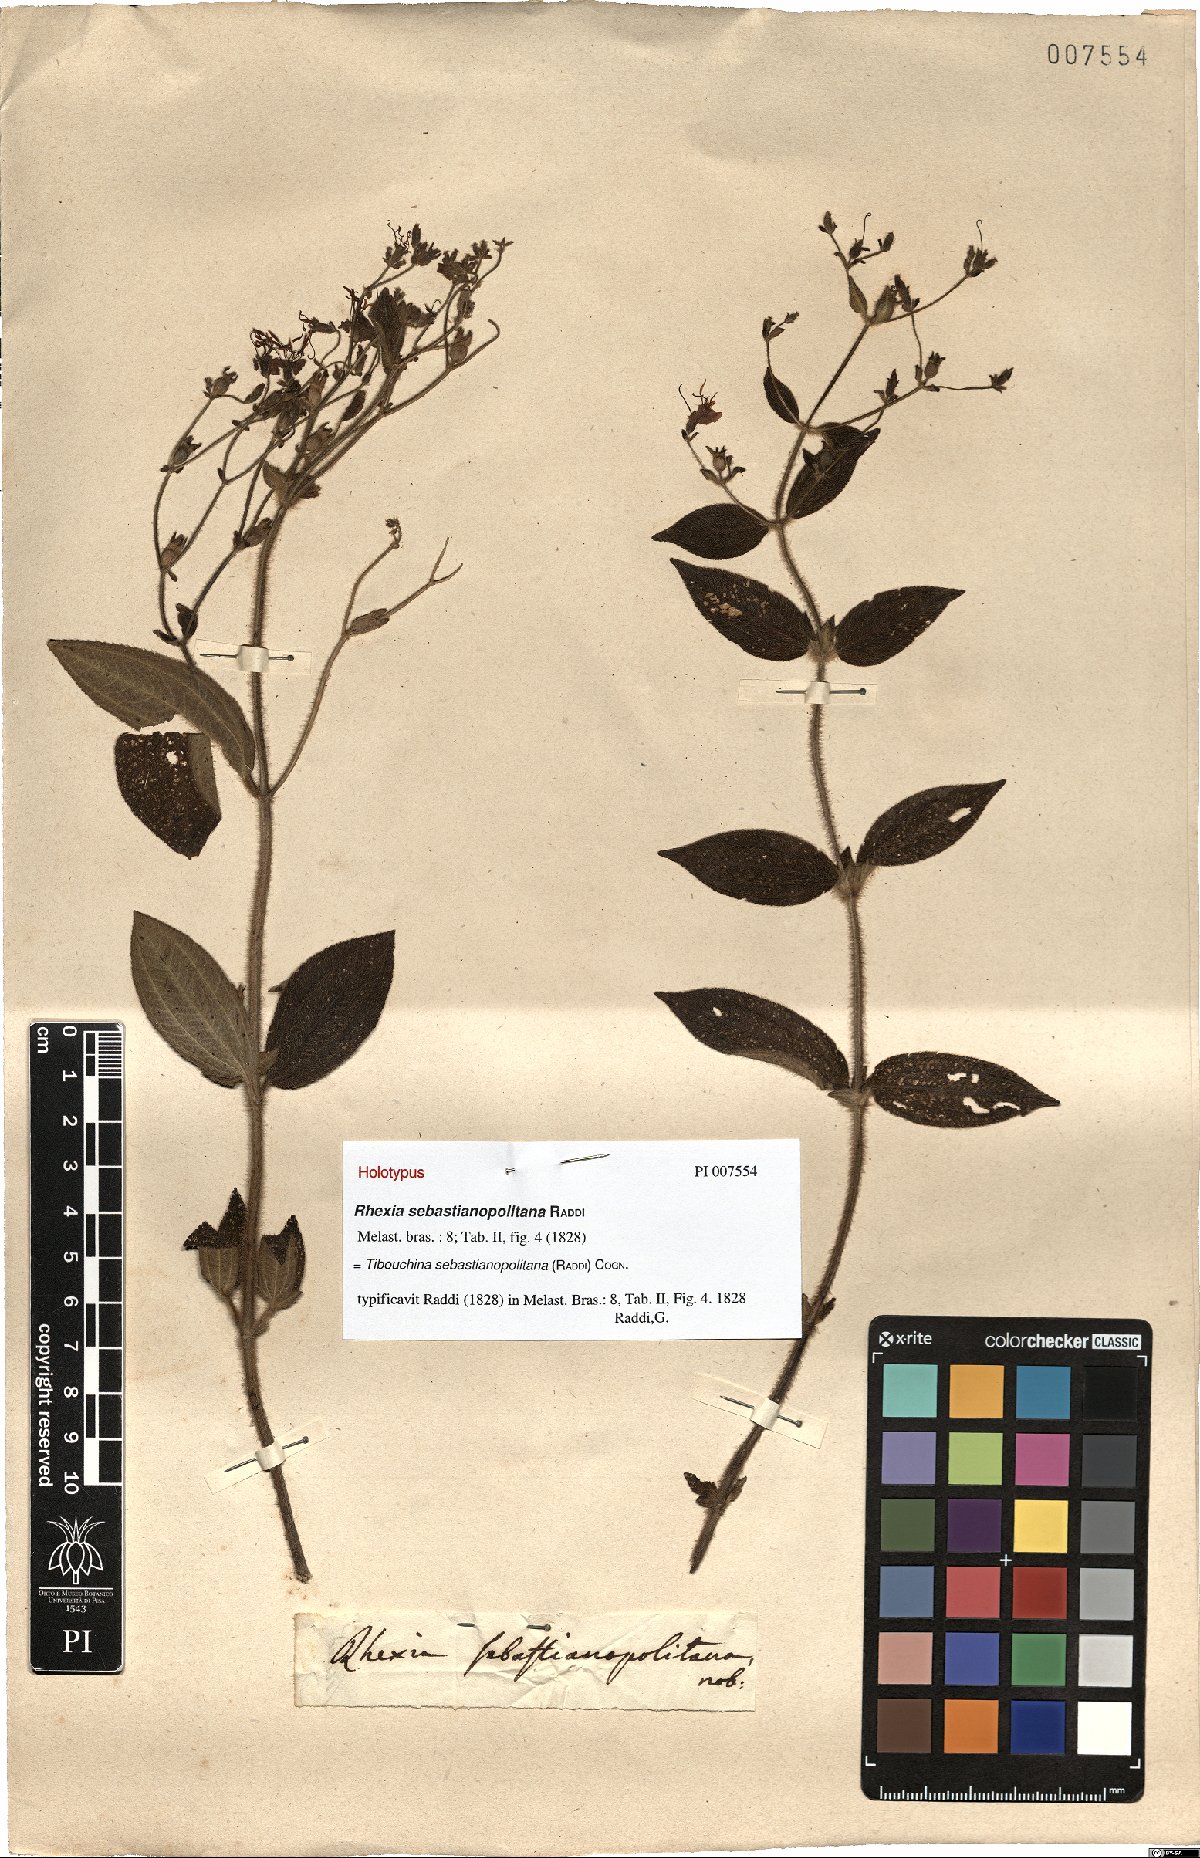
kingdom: Plantae
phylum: Tracheophyta
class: Magnoliopsida
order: Myrtales
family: Melastomataceae
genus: Chaetogastra
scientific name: Chaetogastra sebastianopolitana
